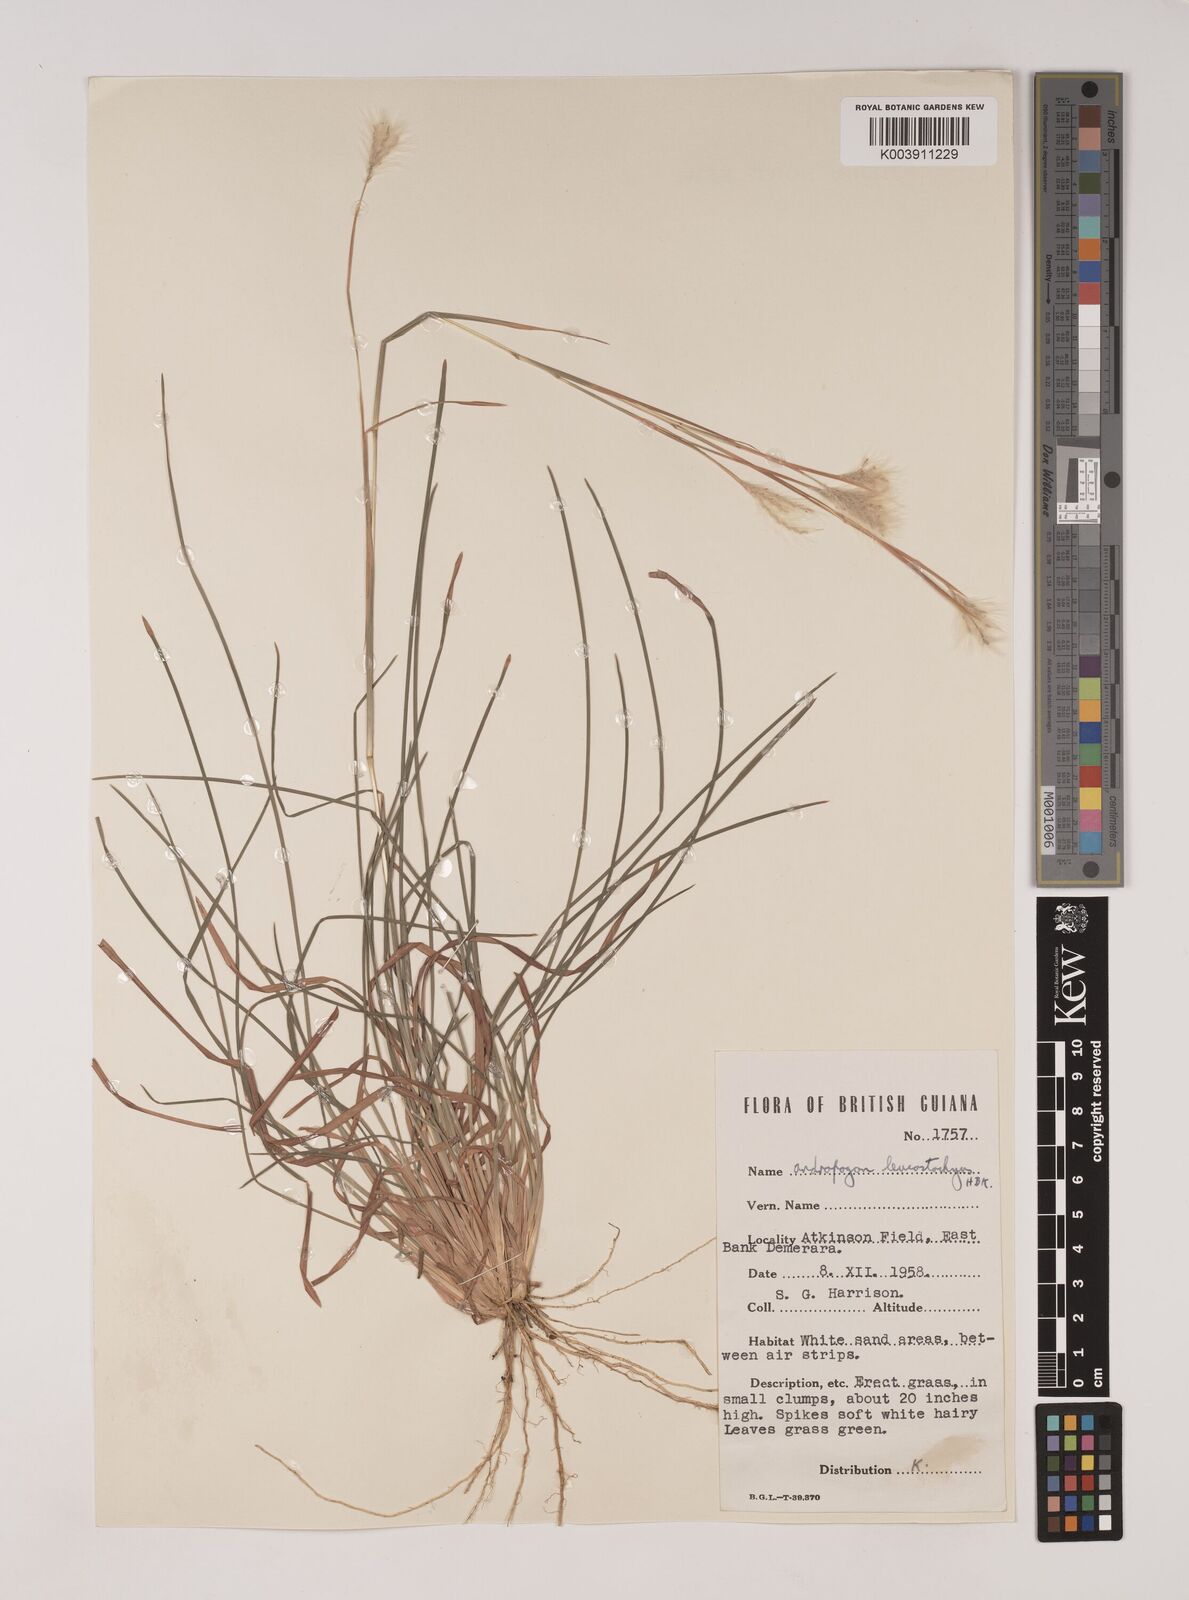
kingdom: Plantae
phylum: Tracheophyta
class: Liliopsida
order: Poales
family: Poaceae
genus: Andropogon
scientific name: Andropogon leucostachyus
